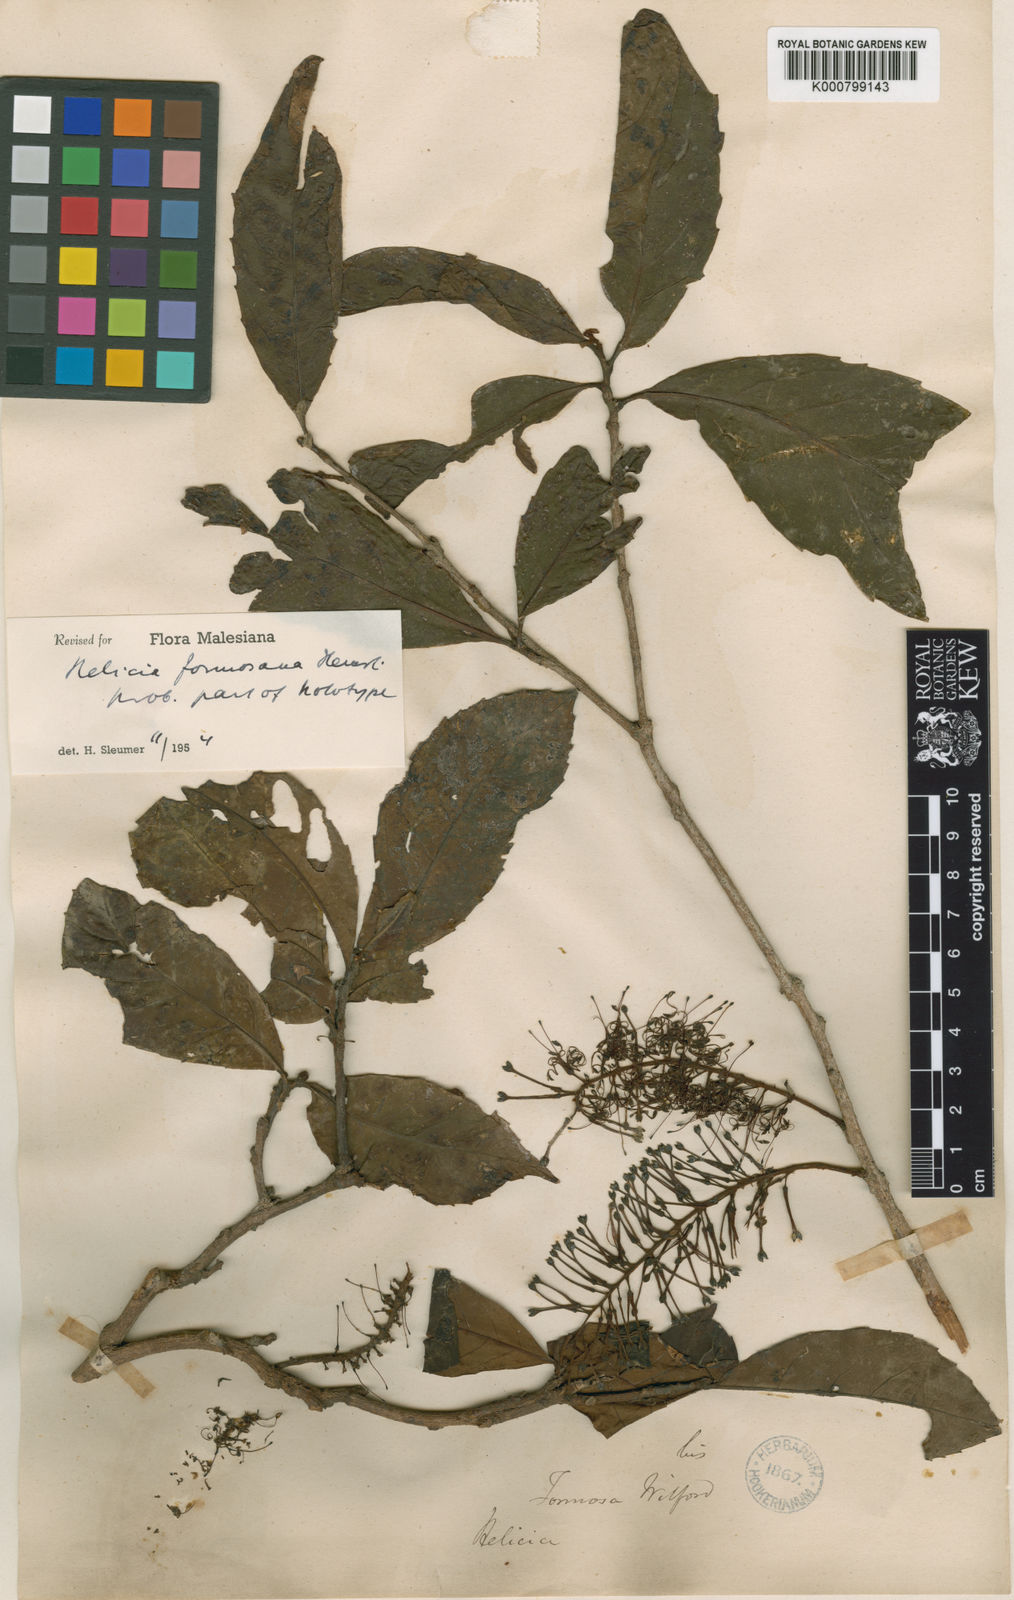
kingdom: Plantae
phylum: Tracheophyta
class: Magnoliopsida
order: Proteales
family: Proteaceae
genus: Helicia
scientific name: Helicia formosana
